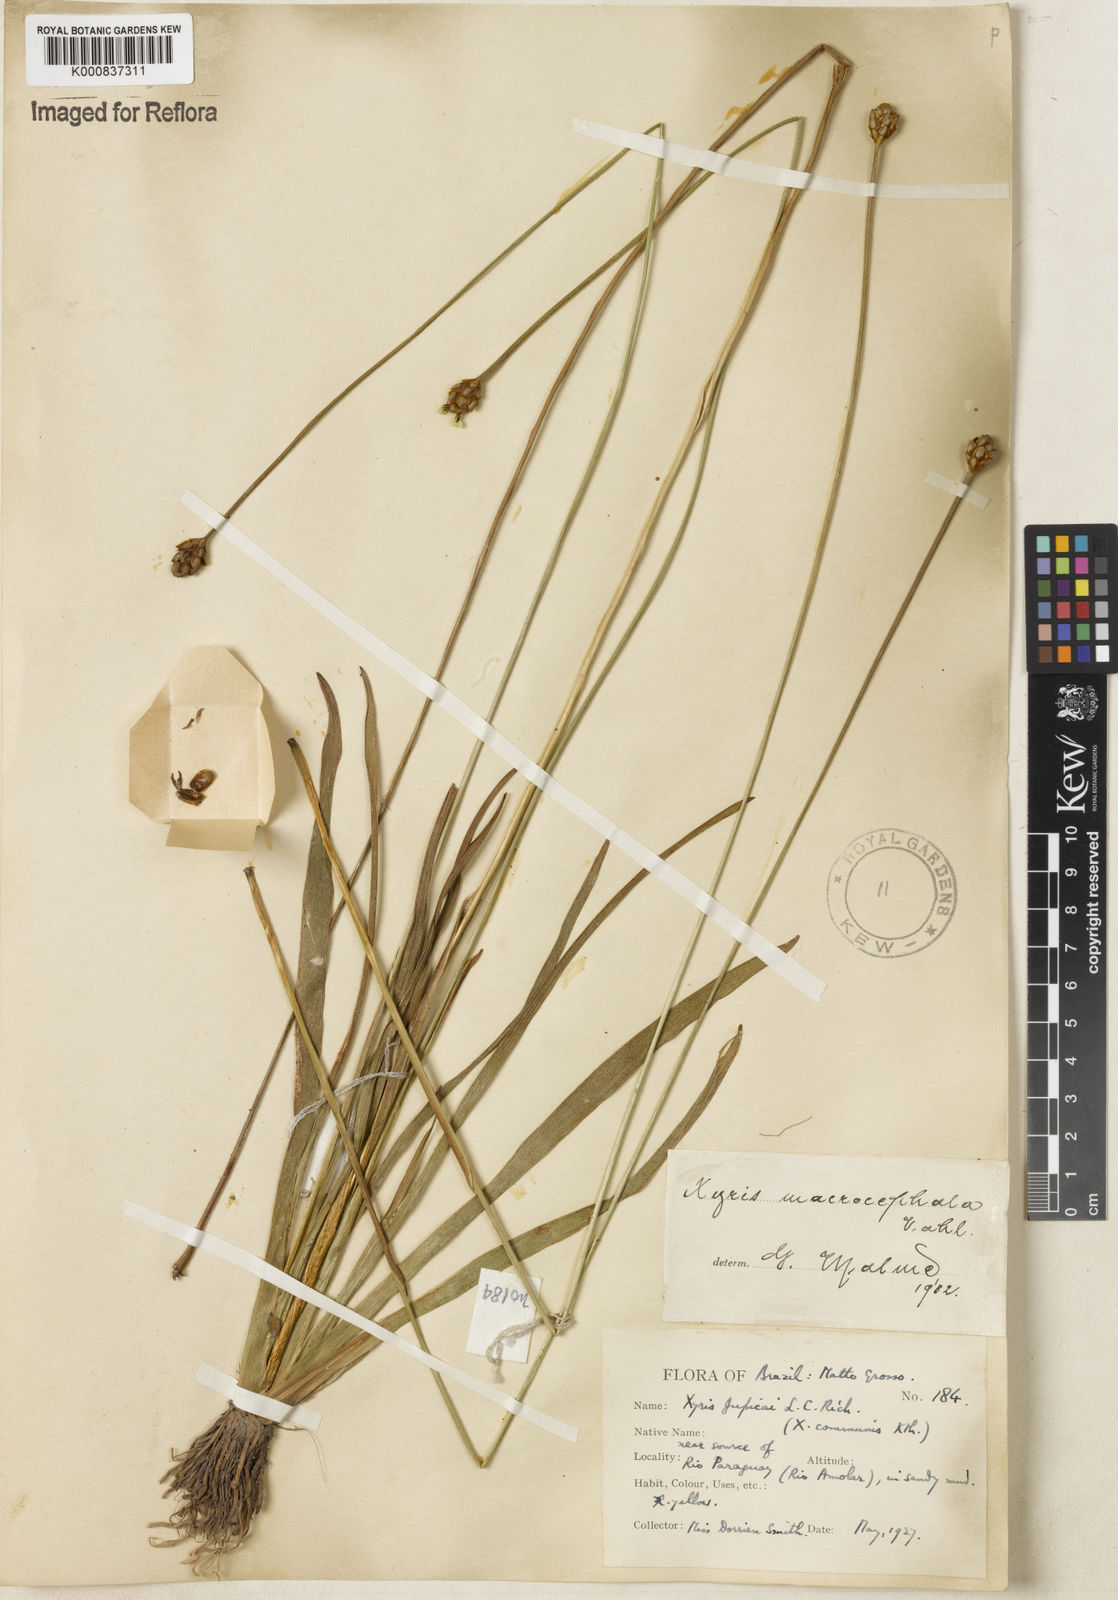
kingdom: Plantae
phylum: Tracheophyta
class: Liliopsida
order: Poales
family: Xyridaceae
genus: Xyris
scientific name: Xyris jupicai
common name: Richard's yelloweyed grass
